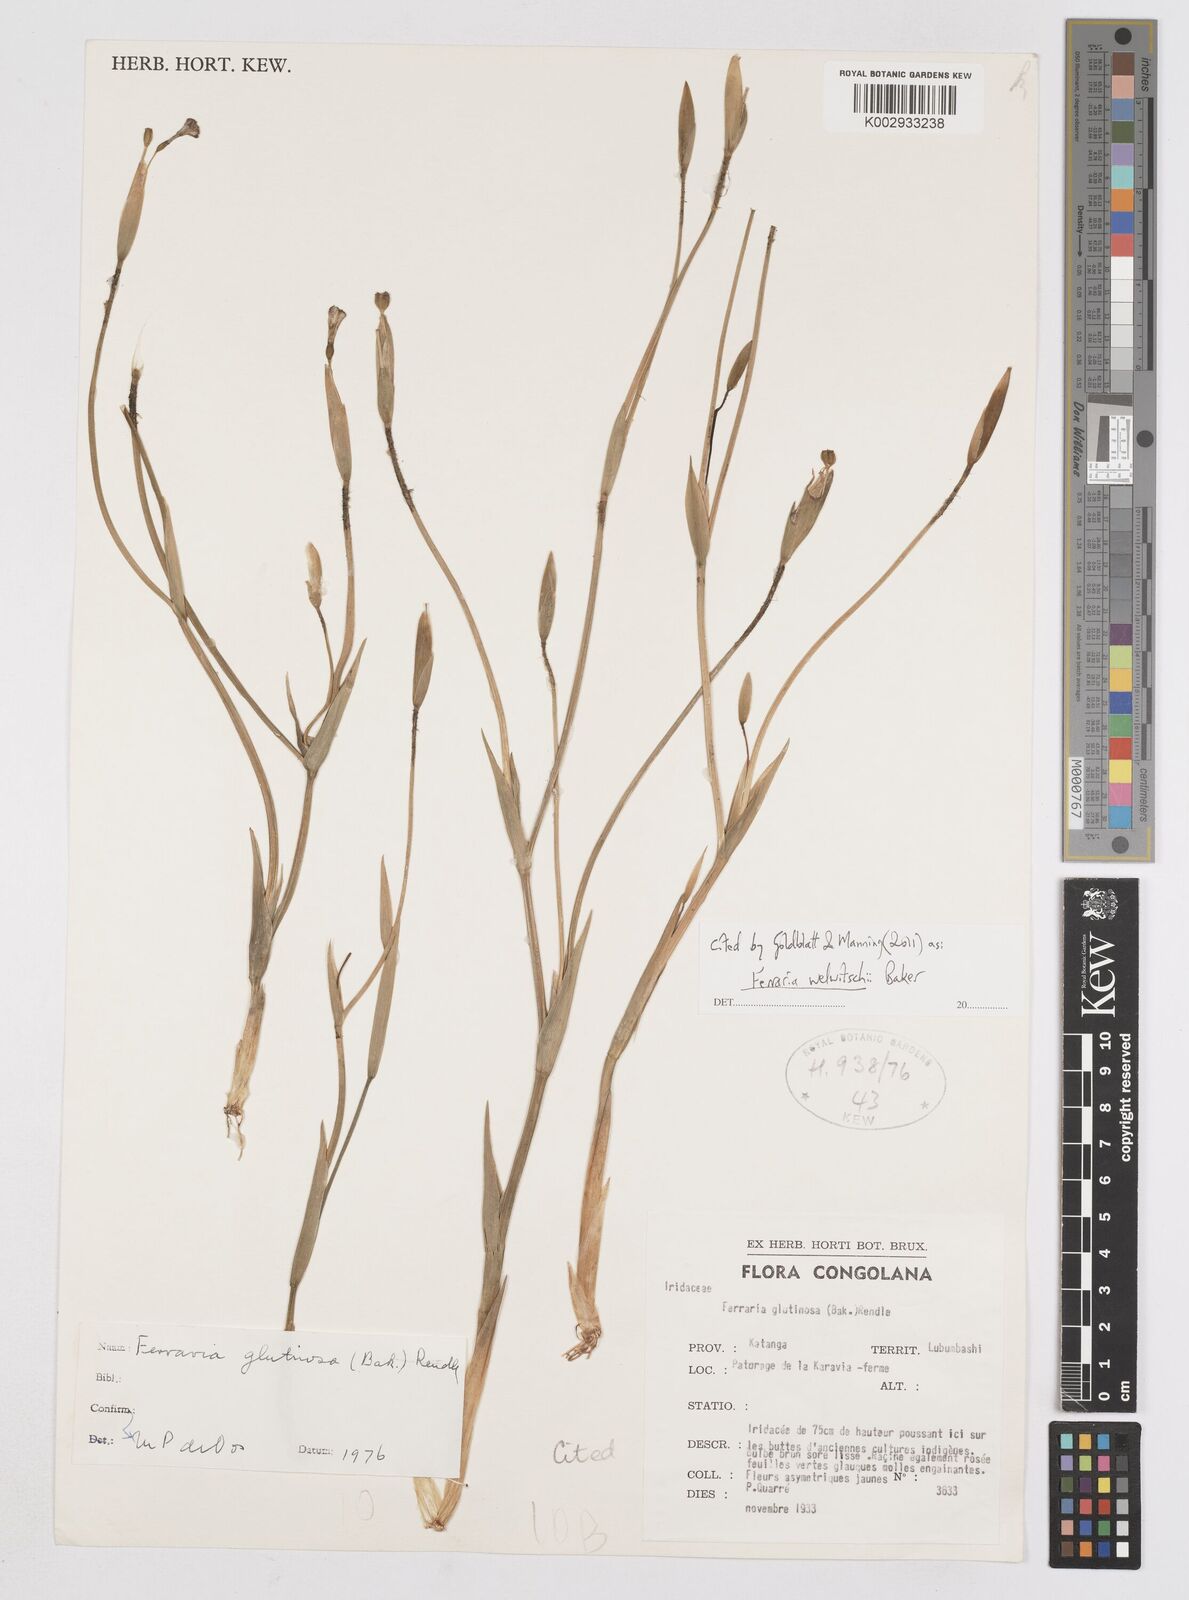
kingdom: Plantae
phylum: Tracheophyta
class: Liliopsida
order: Asparagales
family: Iridaceae
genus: Ferraria
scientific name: Ferraria welwitschii
